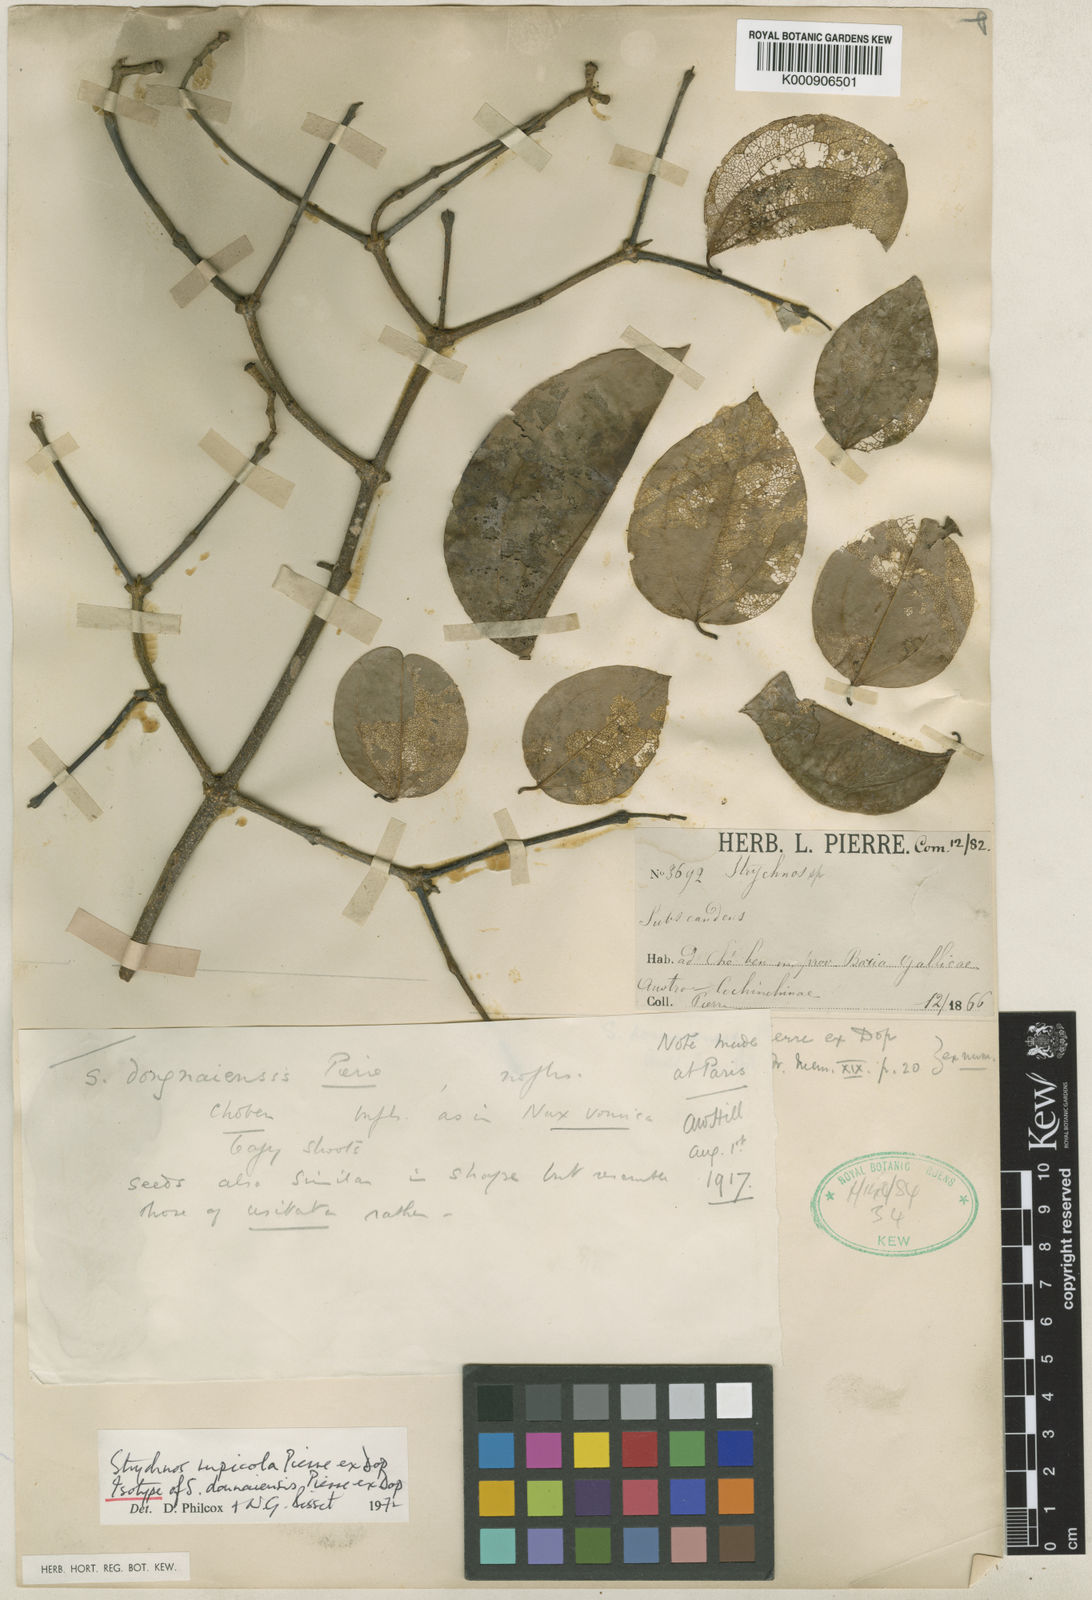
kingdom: Plantae
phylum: Tracheophyta
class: Magnoliopsida
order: Gentianales
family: Loganiaceae
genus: Strychnos
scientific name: Strychnos rupicola
